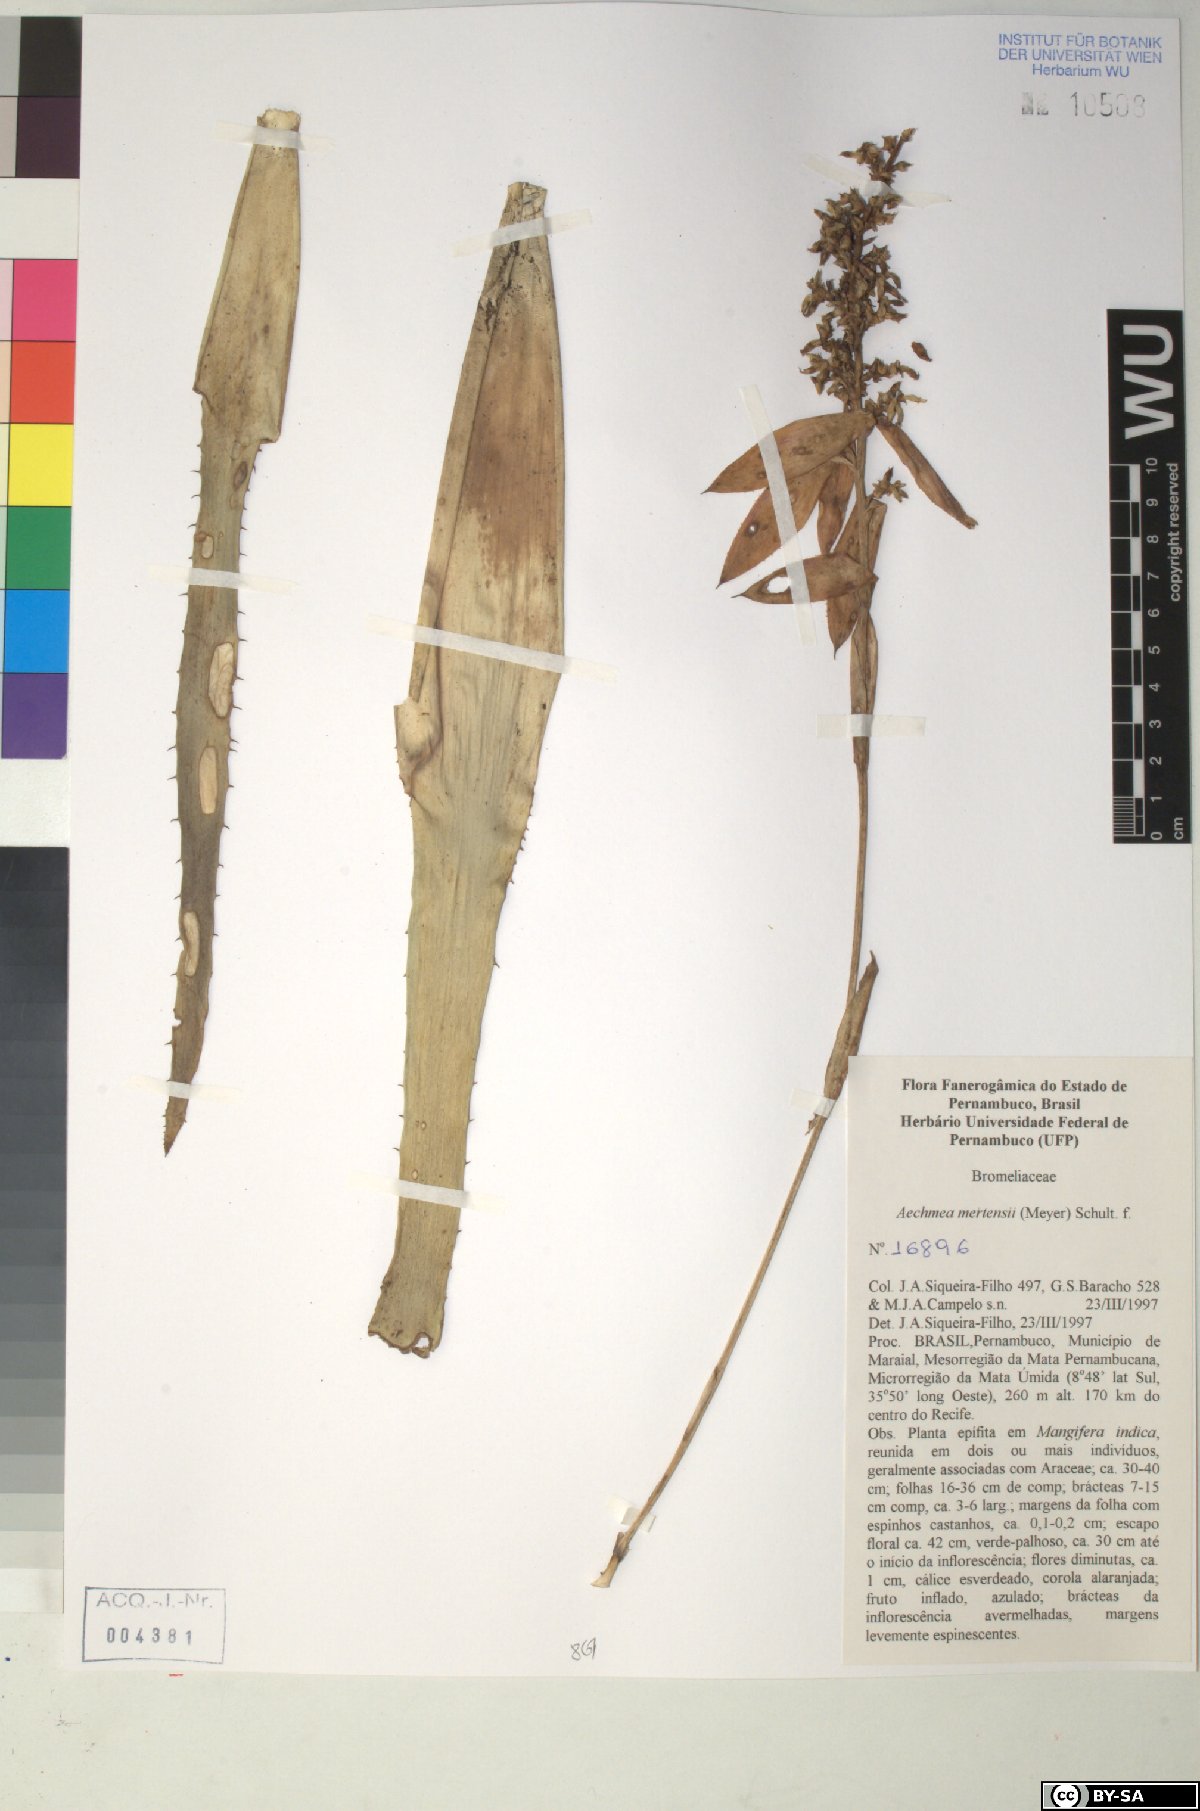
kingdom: Plantae
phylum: Tracheophyta
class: Liliopsida
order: Poales
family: Bromeliaceae
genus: Aechmea
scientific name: Aechmea mertensii
